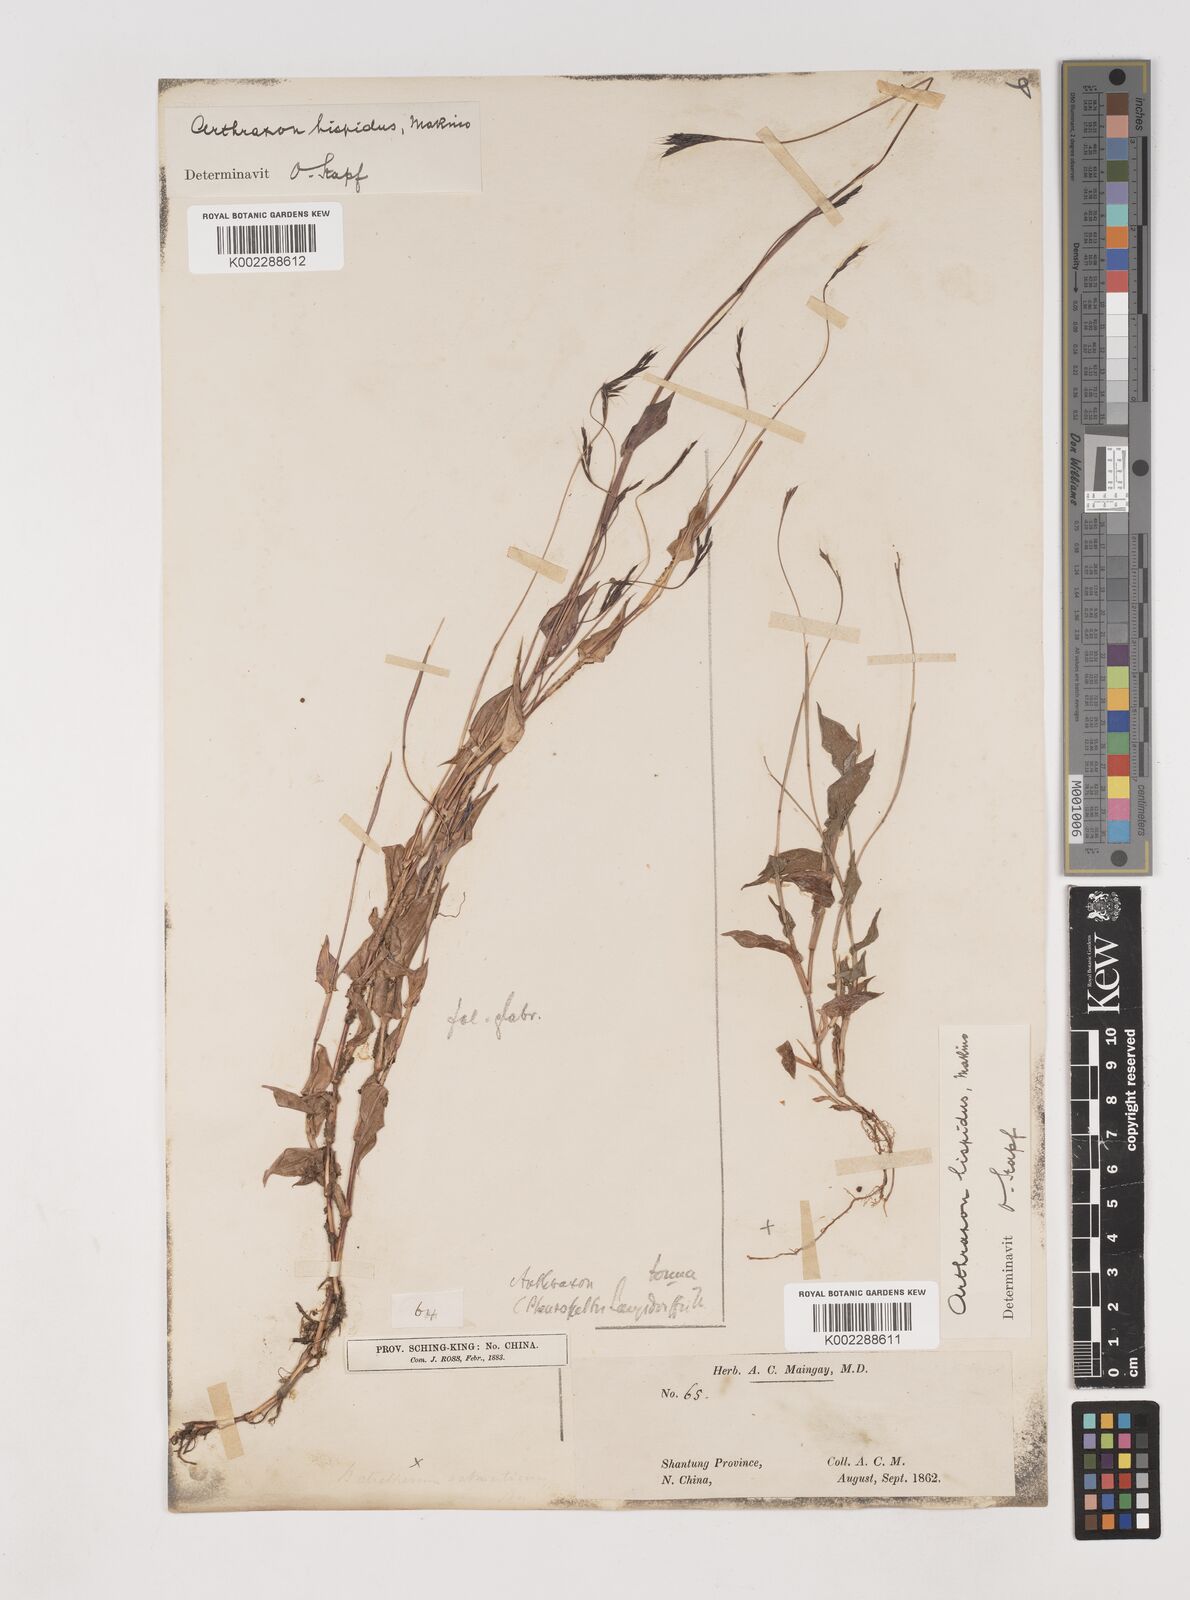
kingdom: Plantae
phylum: Tracheophyta
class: Liliopsida
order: Poales
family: Poaceae
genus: Arthraxon
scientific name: Arthraxon hispidus
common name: Small carpgrass
